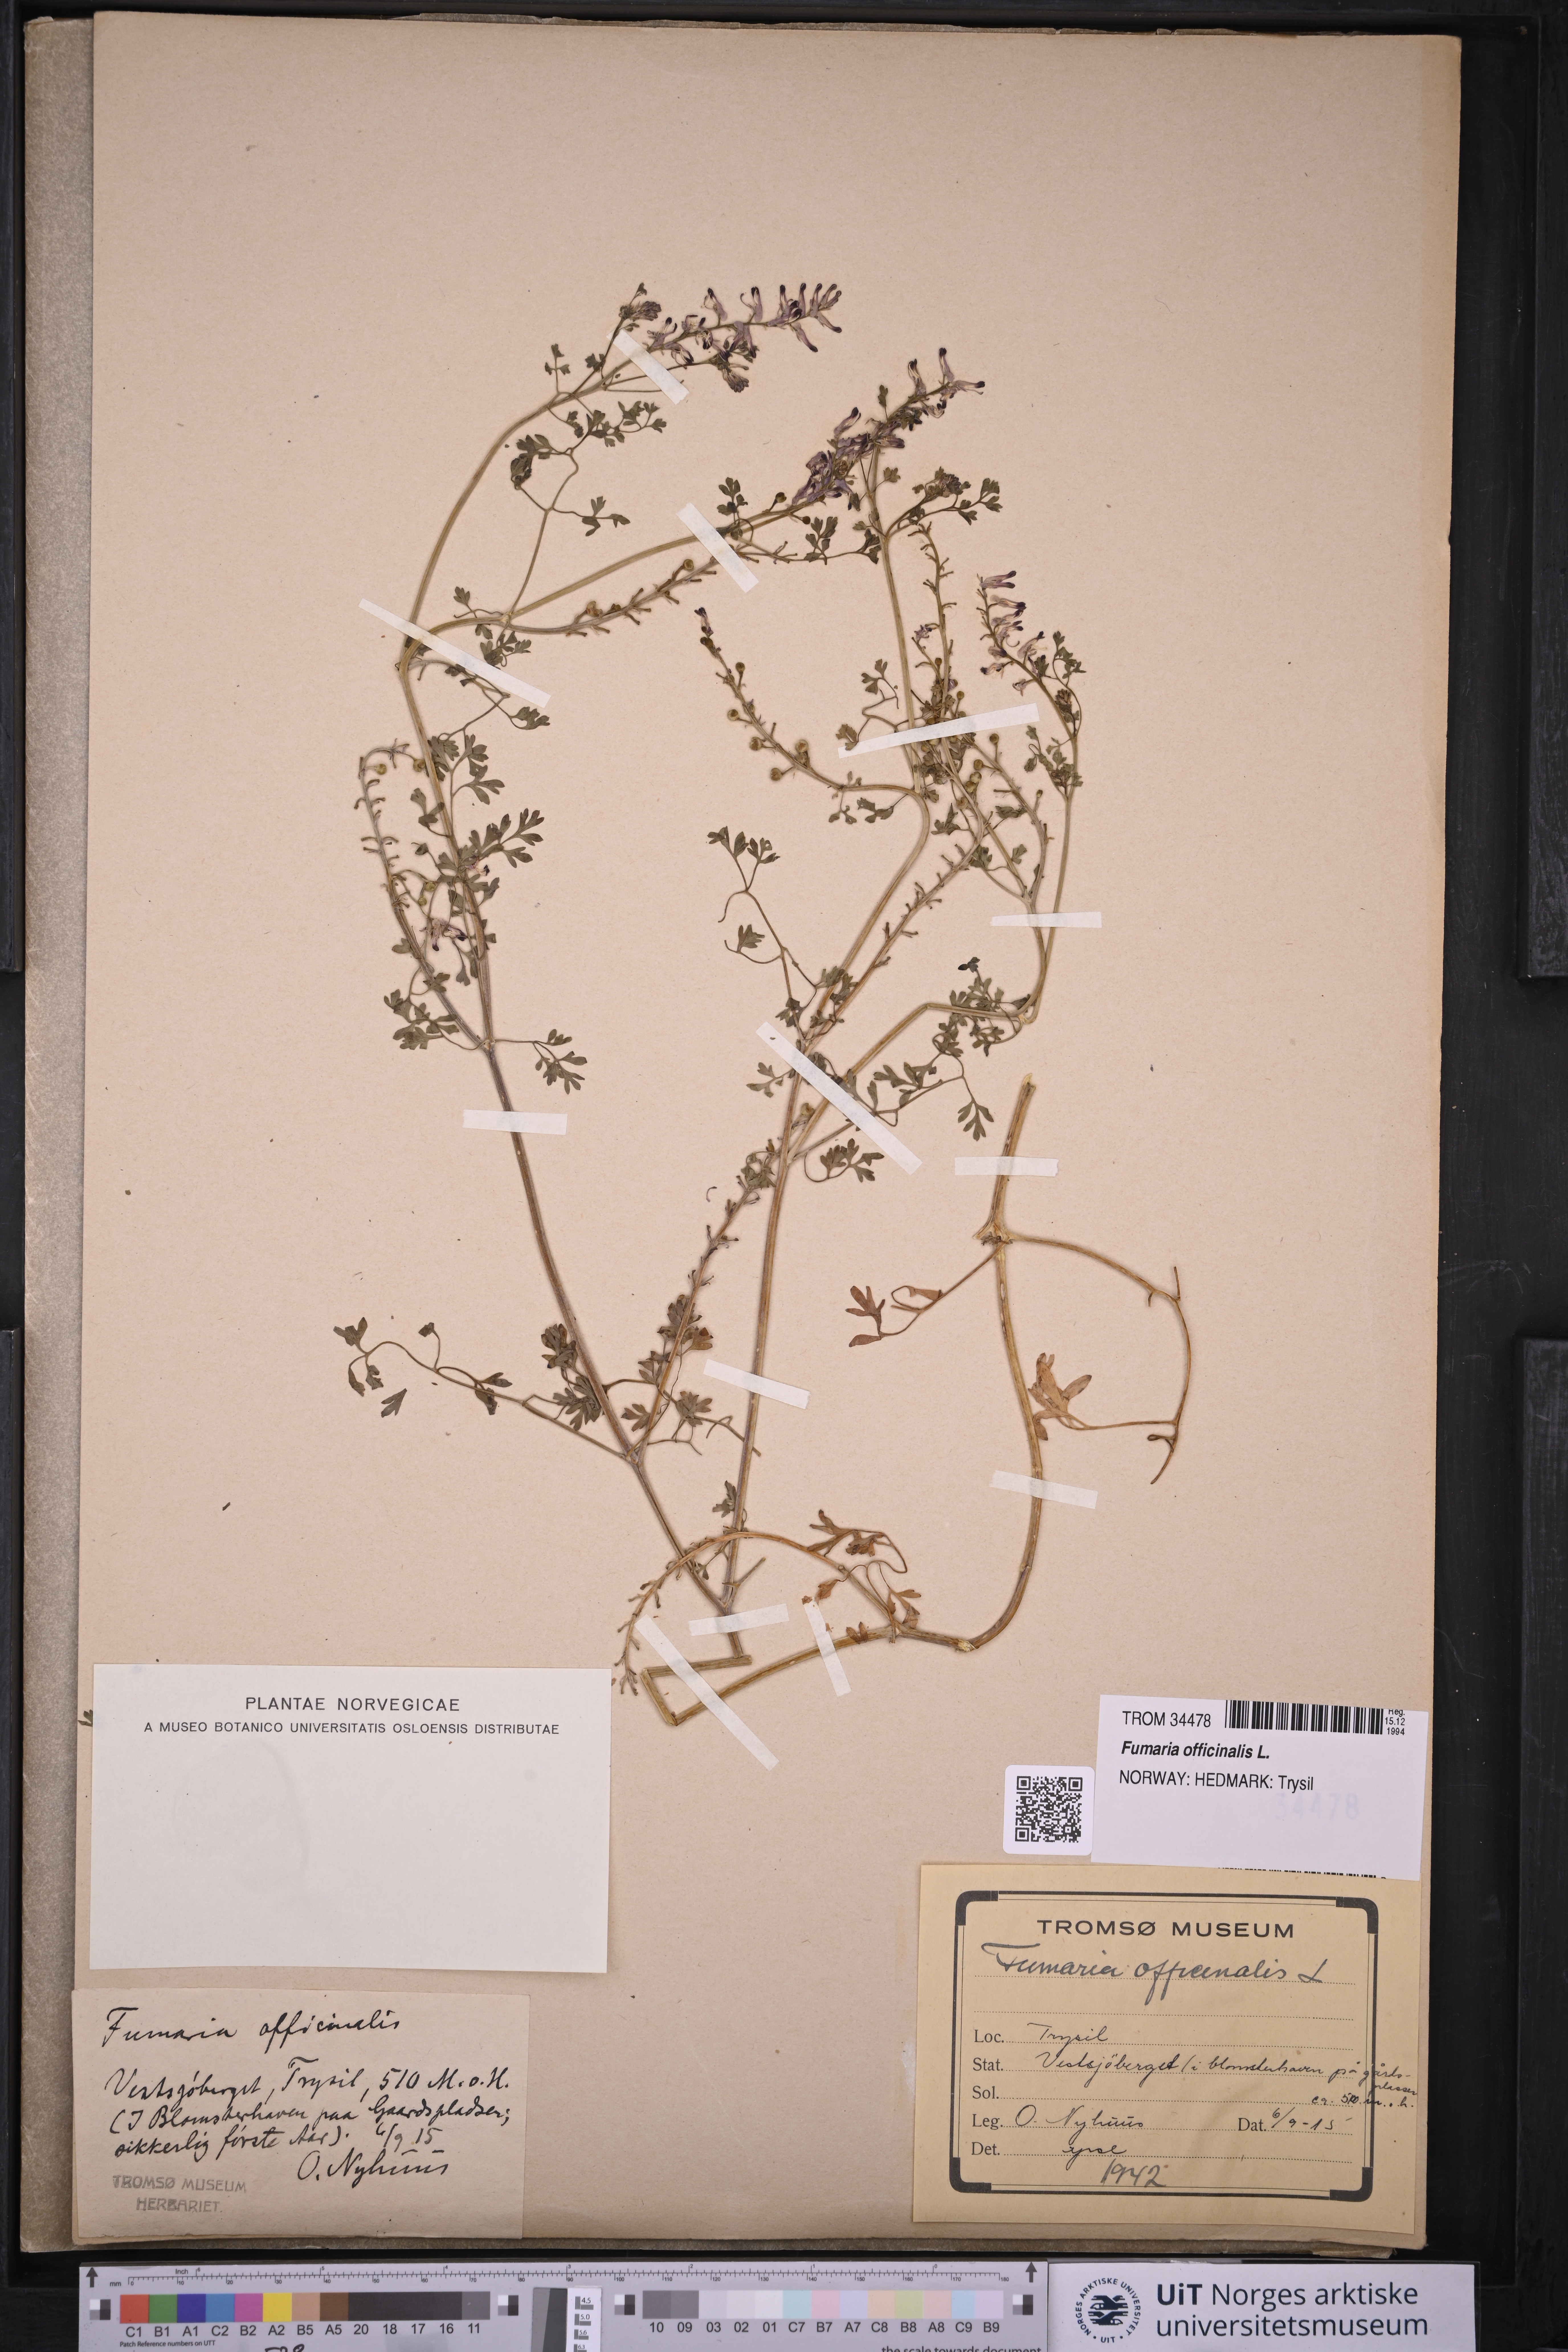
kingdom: Plantae
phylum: Tracheophyta
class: Magnoliopsida
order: Ranunculales
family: Papaveraceae
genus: Fumaria
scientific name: Fumaria officinalis
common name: Common fumitory
